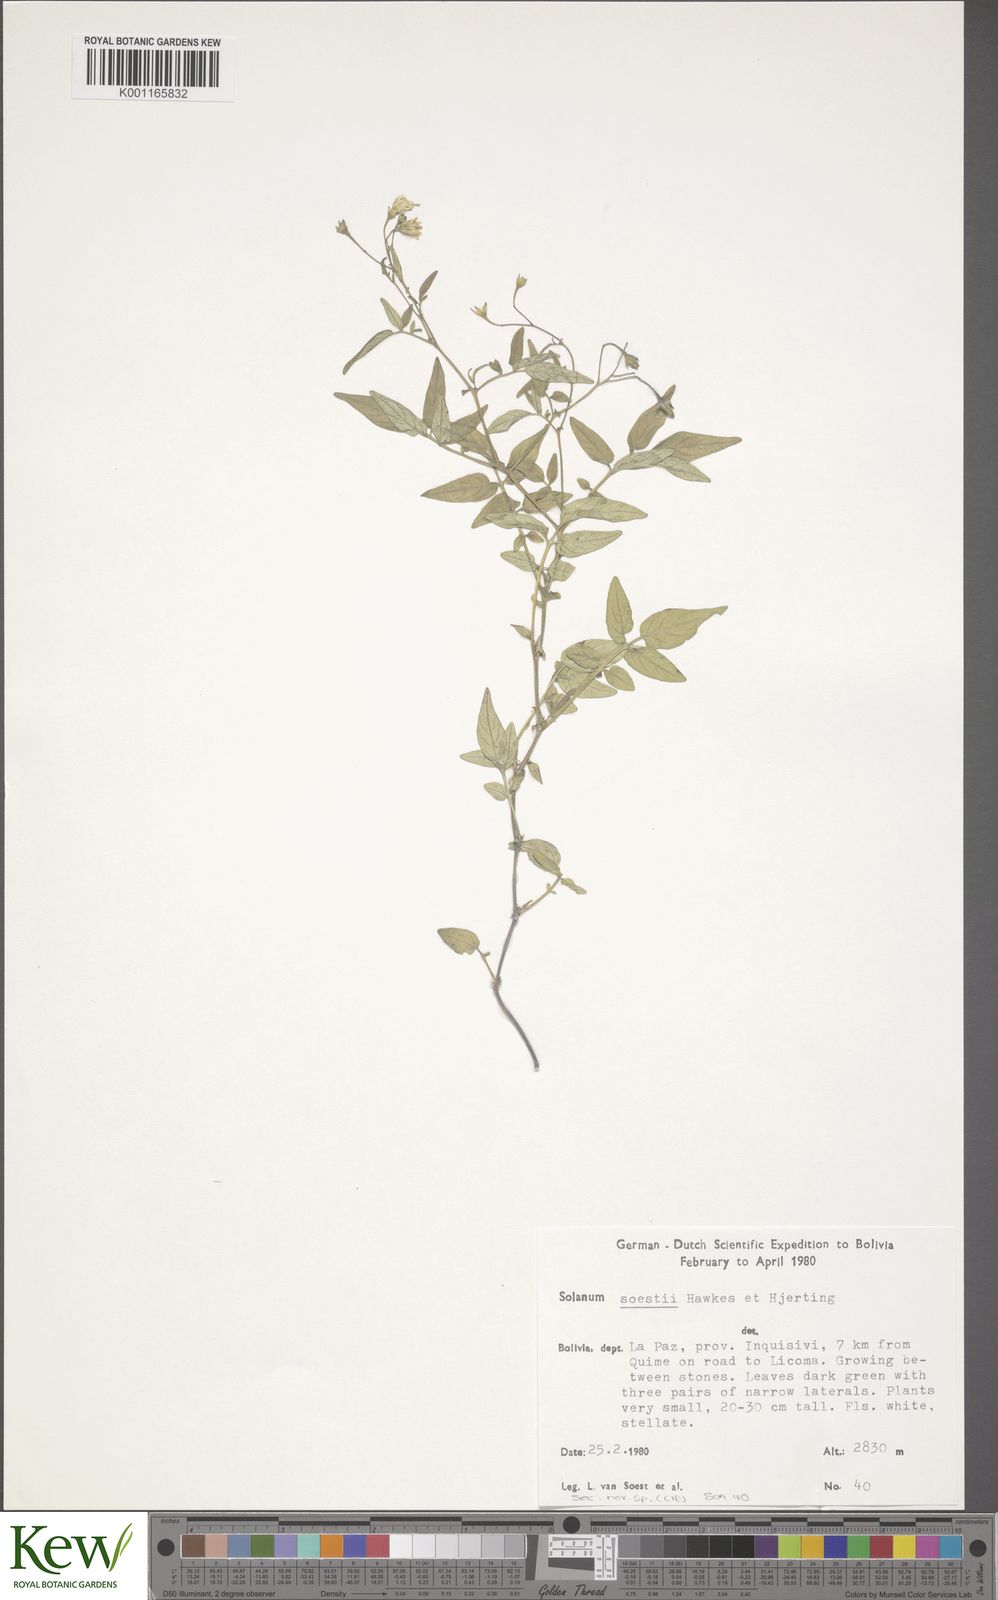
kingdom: Plantae
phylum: Tracheophyta
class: Magnoliopsida
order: Solanales
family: Solanaceae
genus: Solanum
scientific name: Solanum stipuloideum
